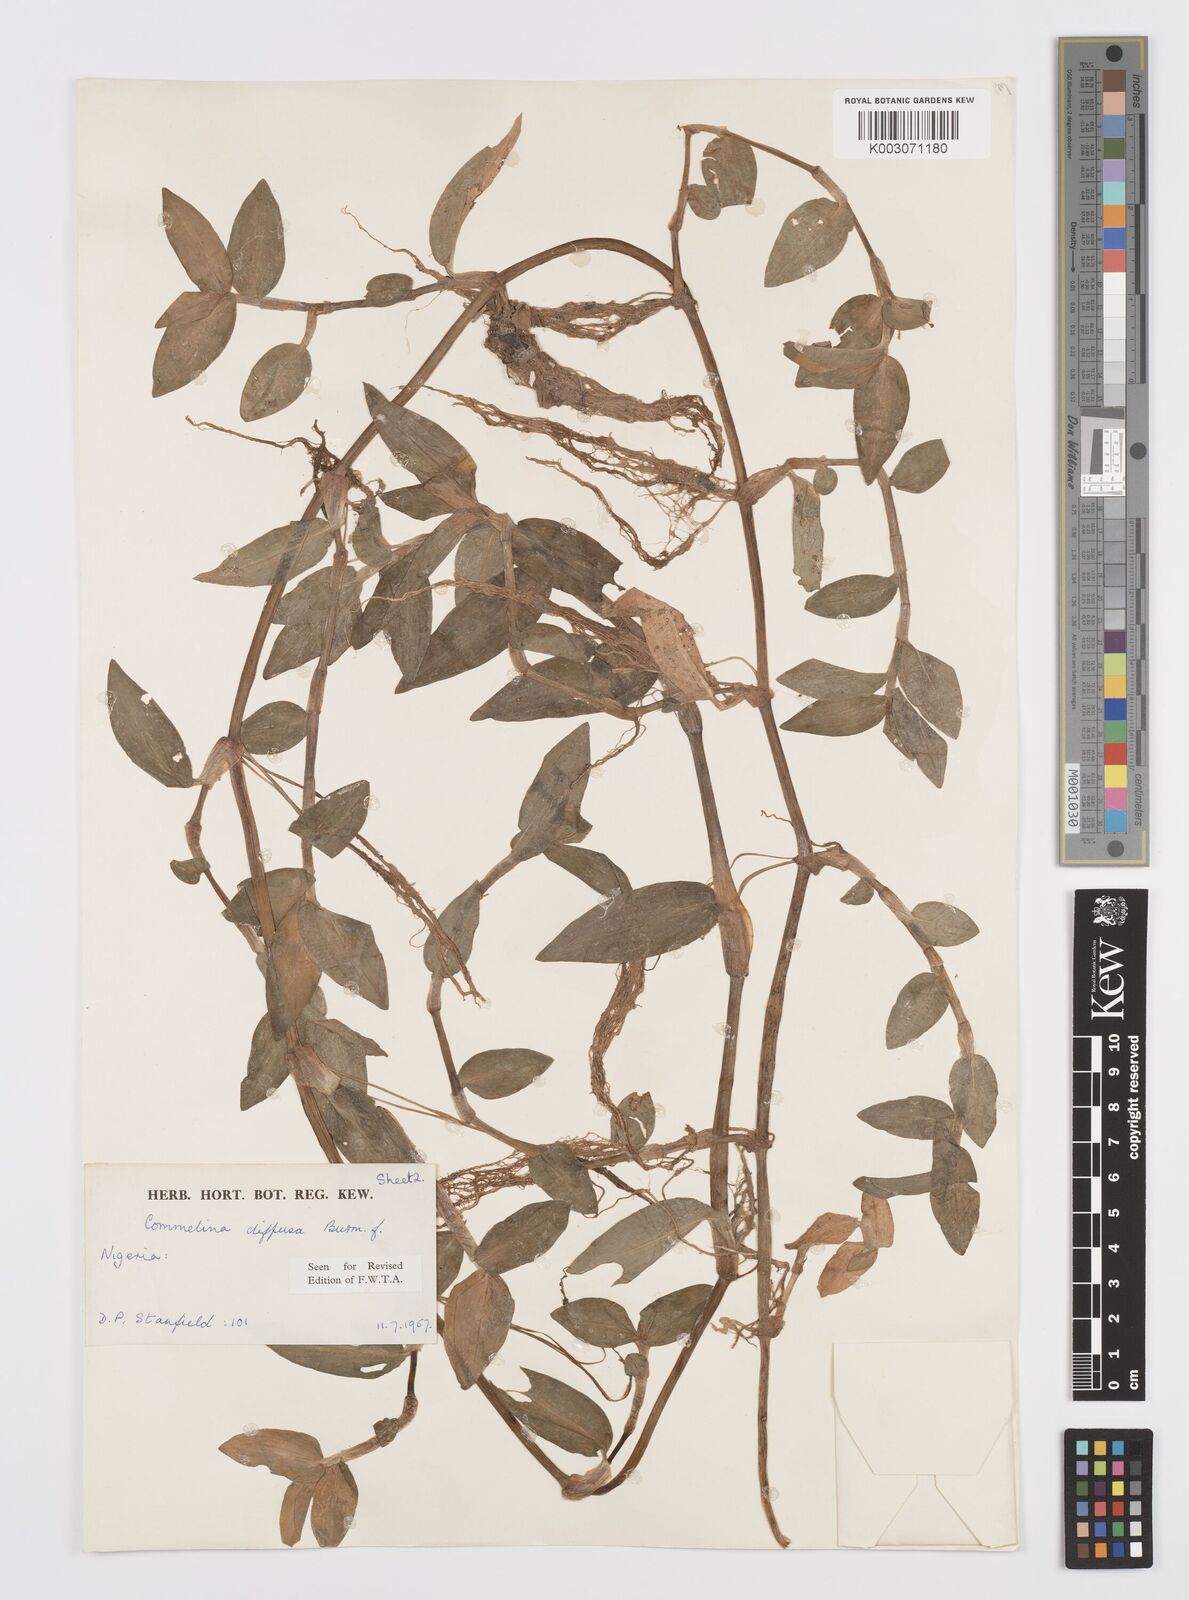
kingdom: Plantae
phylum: Tracheophyta
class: Liliopsida
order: Commelinales
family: Commelinaceae
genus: Commelina
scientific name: Commelina diffusa
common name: Climbing dayflower
